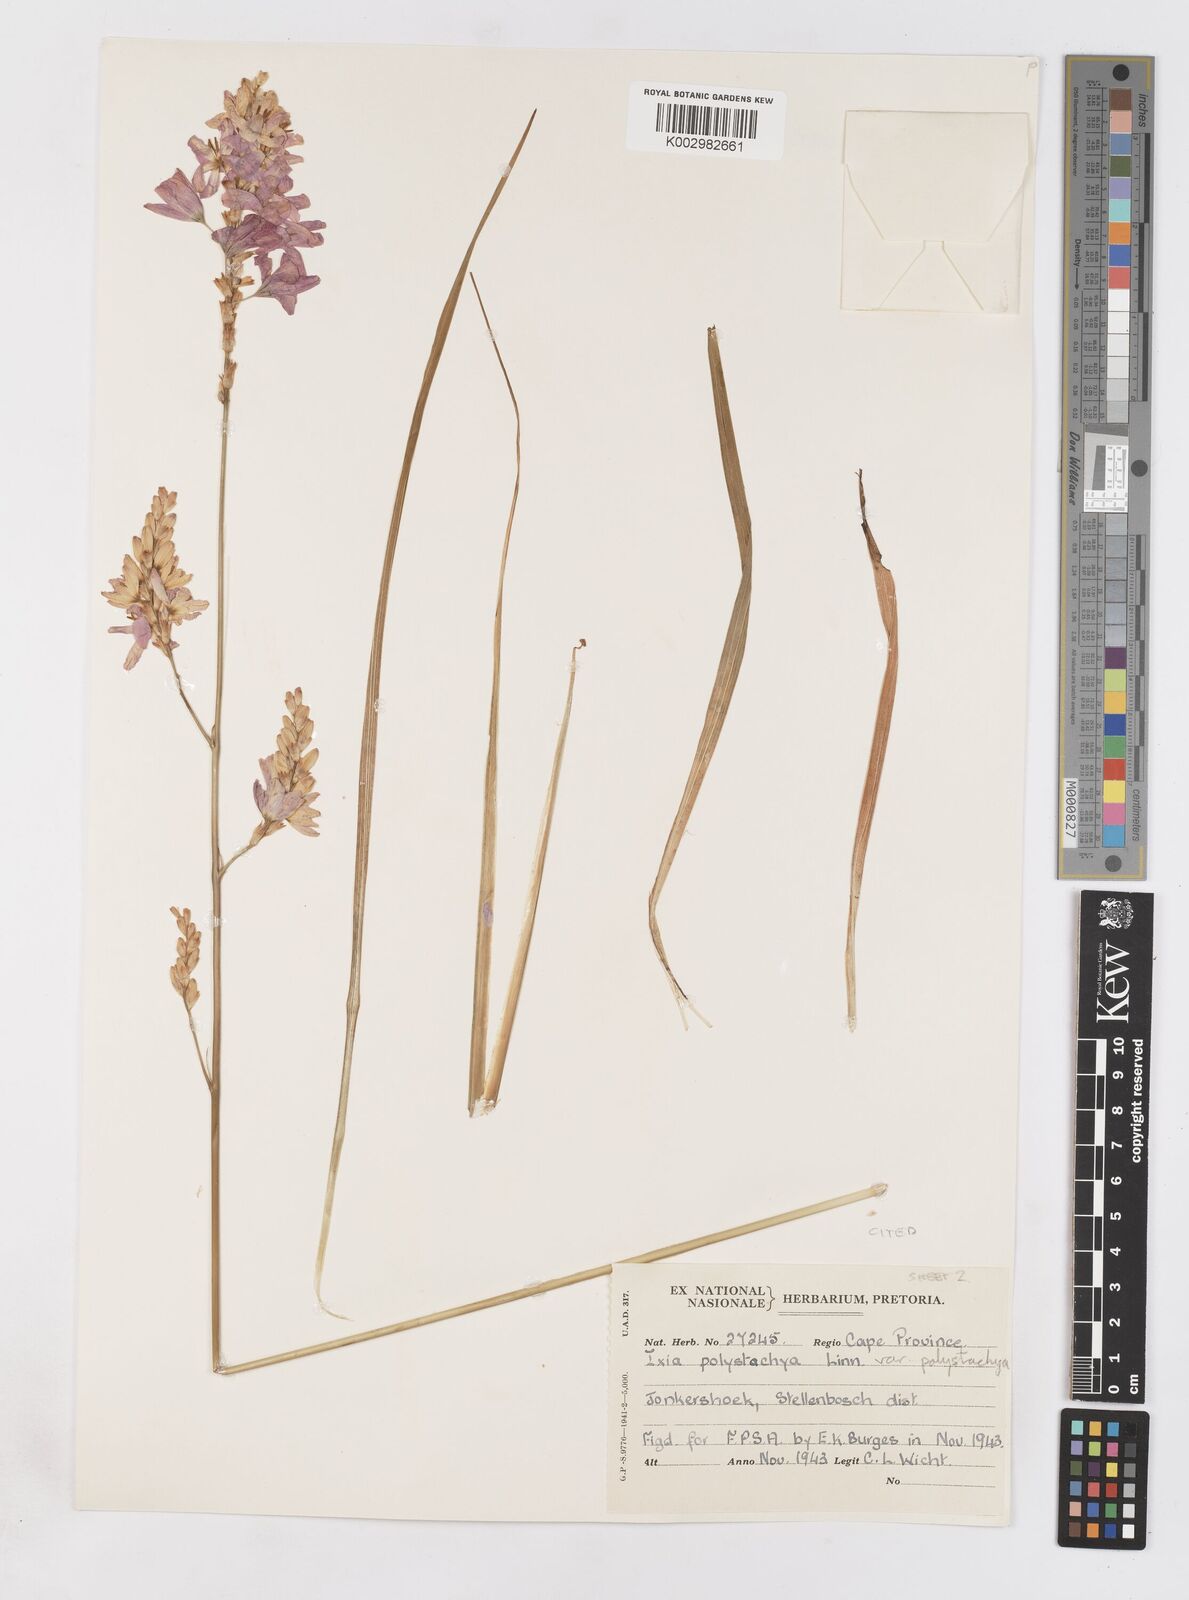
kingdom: Plantae
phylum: Tracheophyta
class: Liliopsida
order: Asparagales
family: Iridaceae
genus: Ixia
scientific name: Ixia polystachya
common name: White-and-yellow-flower cornlily
